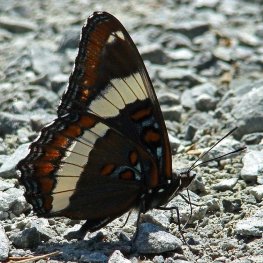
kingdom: Animalia
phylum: Arthropoda
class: Insecta
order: Lepidoptera
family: Nymphalidae
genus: Limenitis
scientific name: Limenitis arthemis
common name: Red-spotted Admiral
